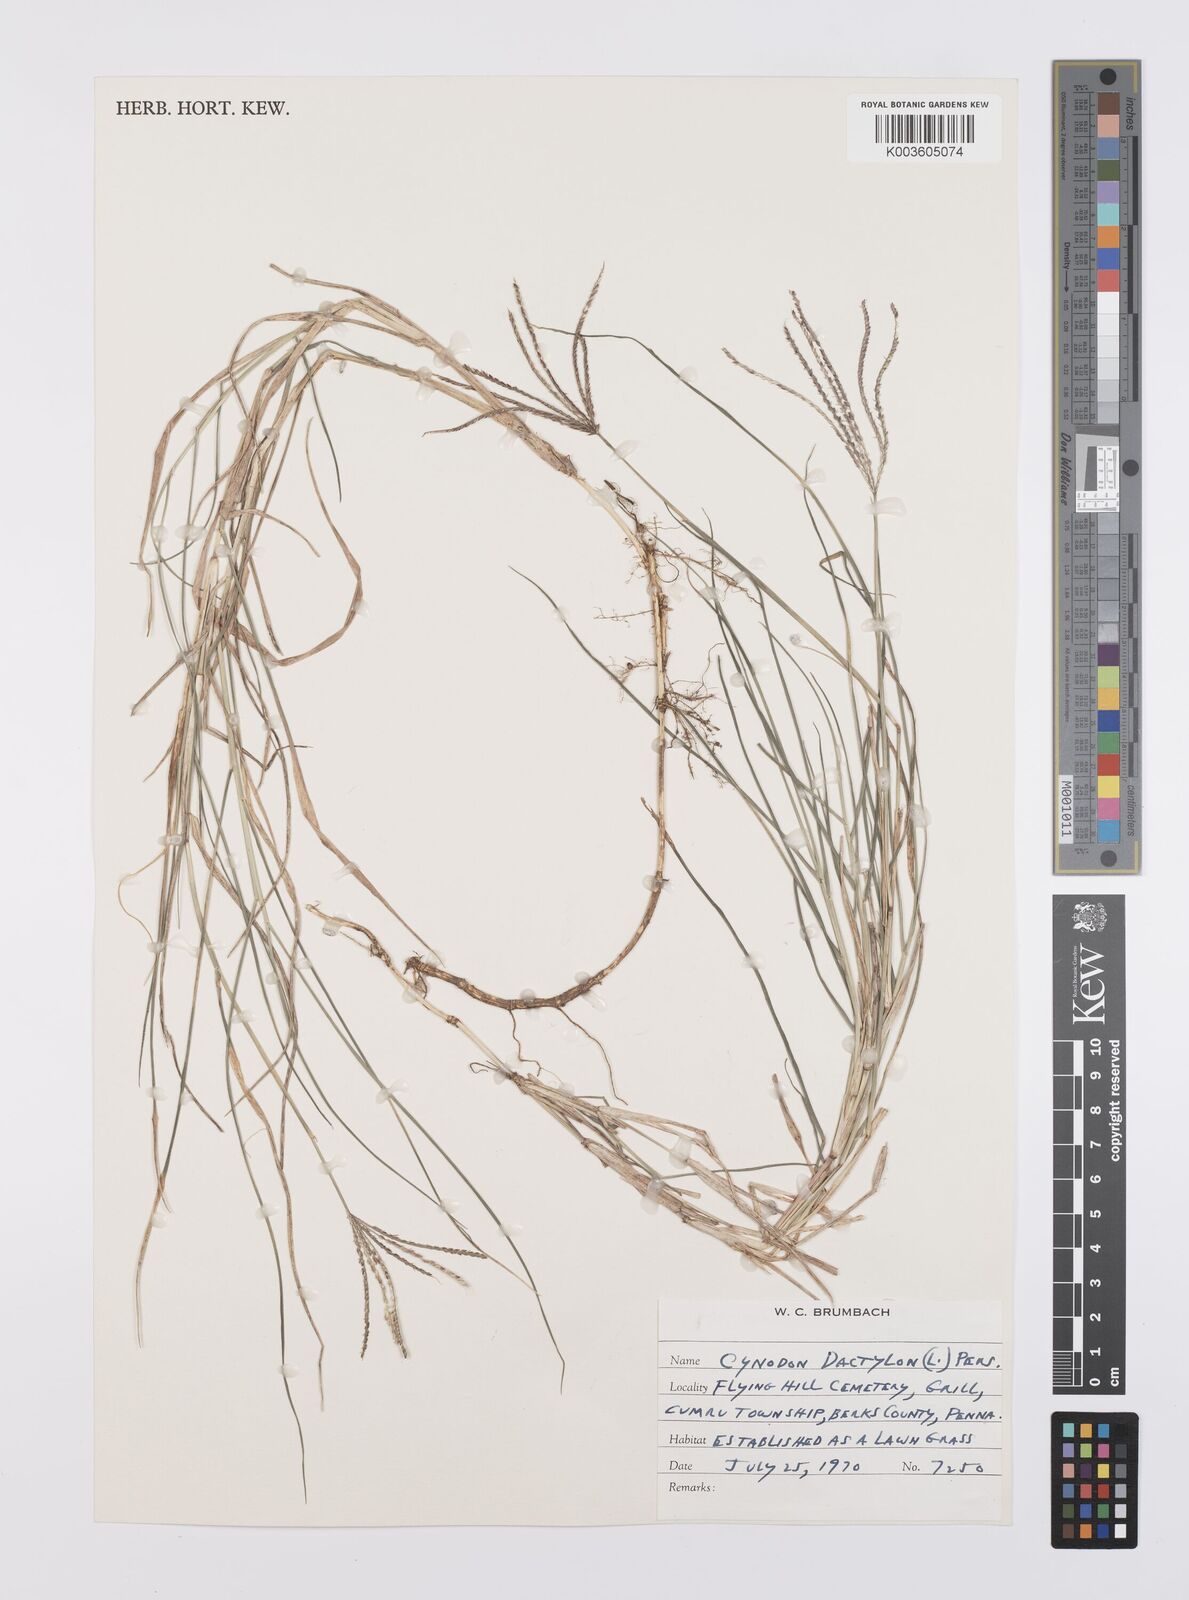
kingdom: Plantae
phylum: Tracheophyta
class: Liliopsida
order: Poales
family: Poaceae
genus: Cynodon
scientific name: Cynodon dactylon
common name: Bermuda grass
